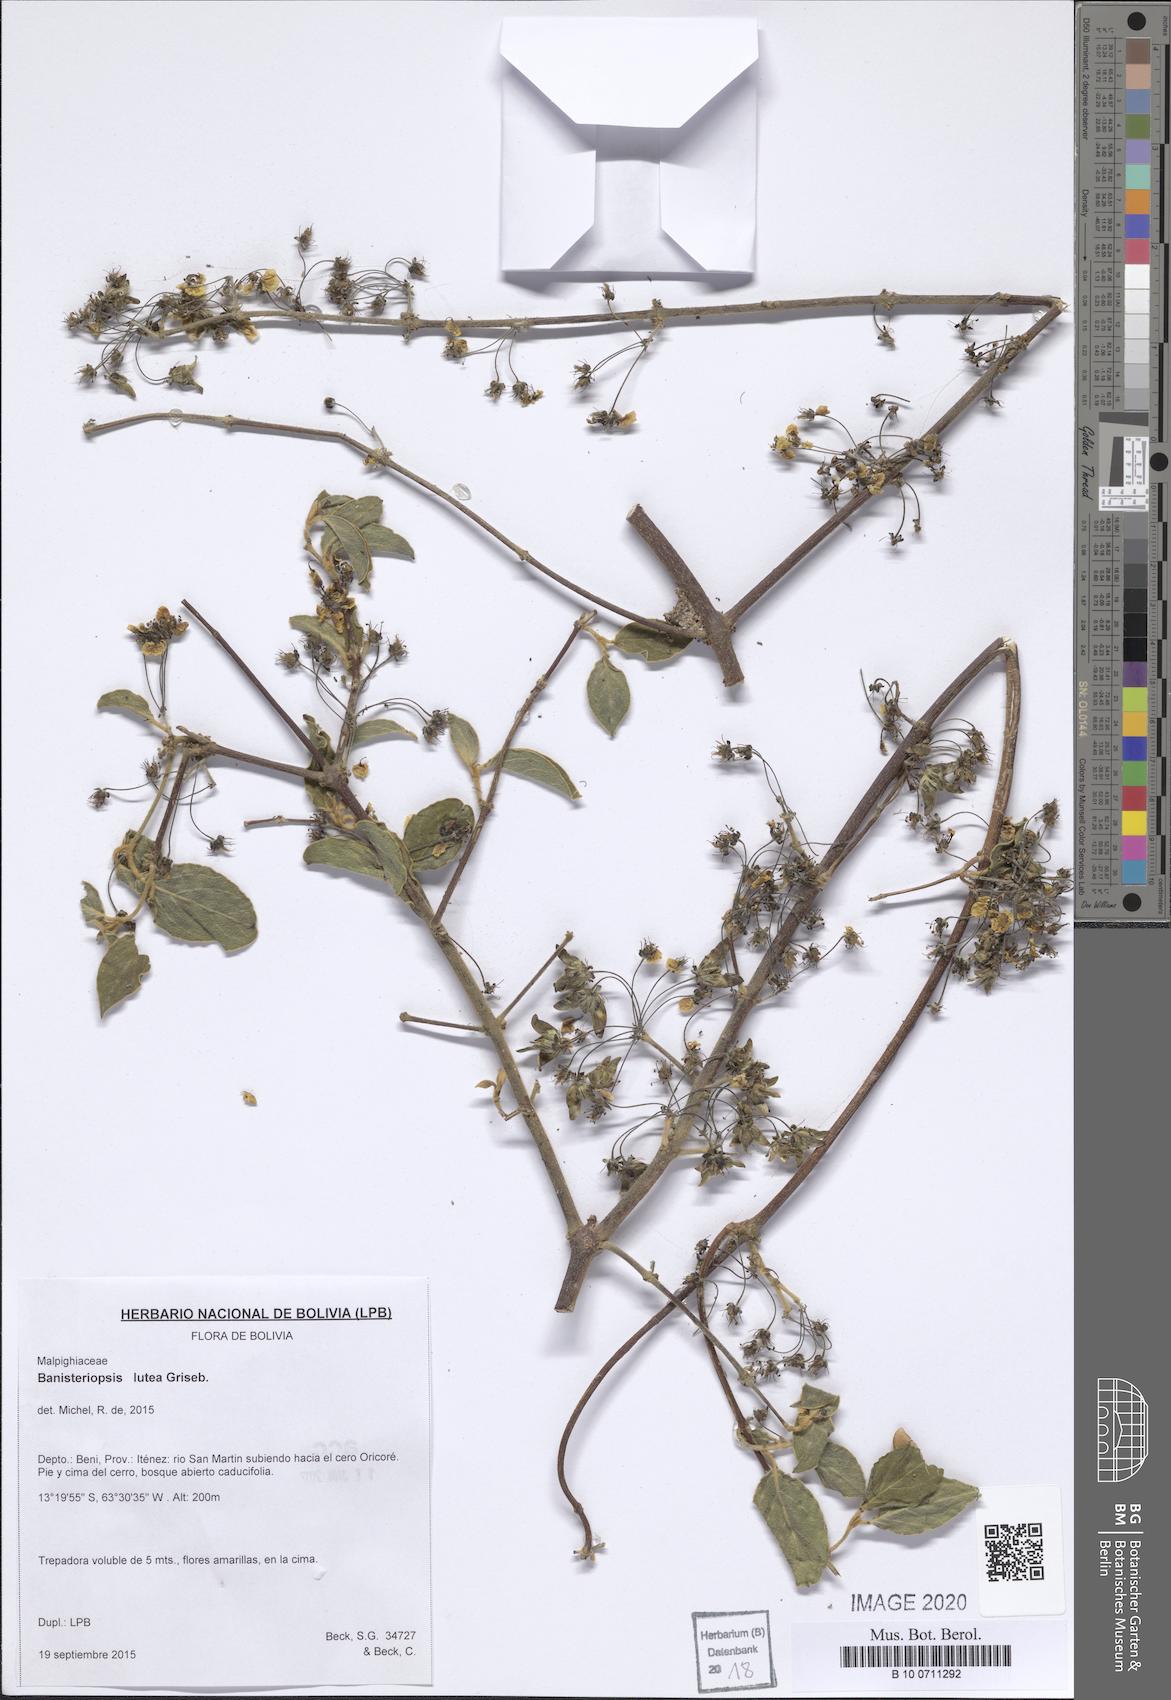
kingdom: Plantae
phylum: Tracheophyta
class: Magnoliopsida
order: Malpighiales
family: Malpighiaceae
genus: Diplopterys
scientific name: Diplopterys lutea
